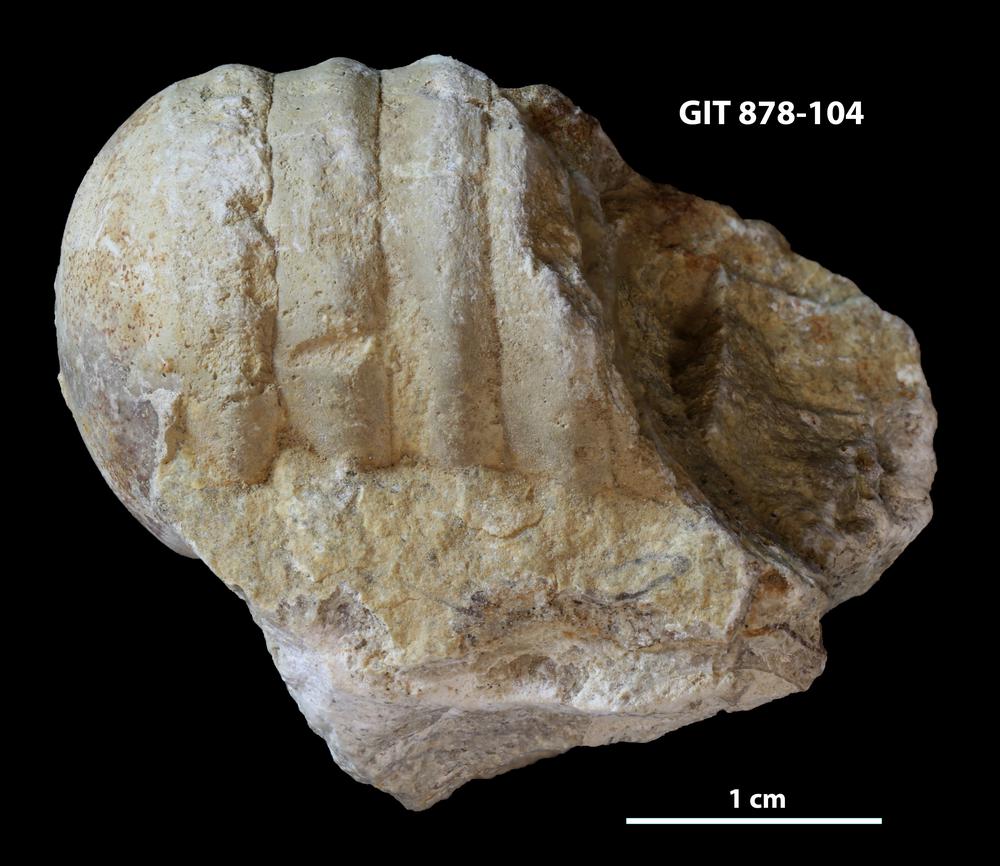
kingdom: Animalia
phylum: Mollusca
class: Cephalopoda
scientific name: Cephalopoda
